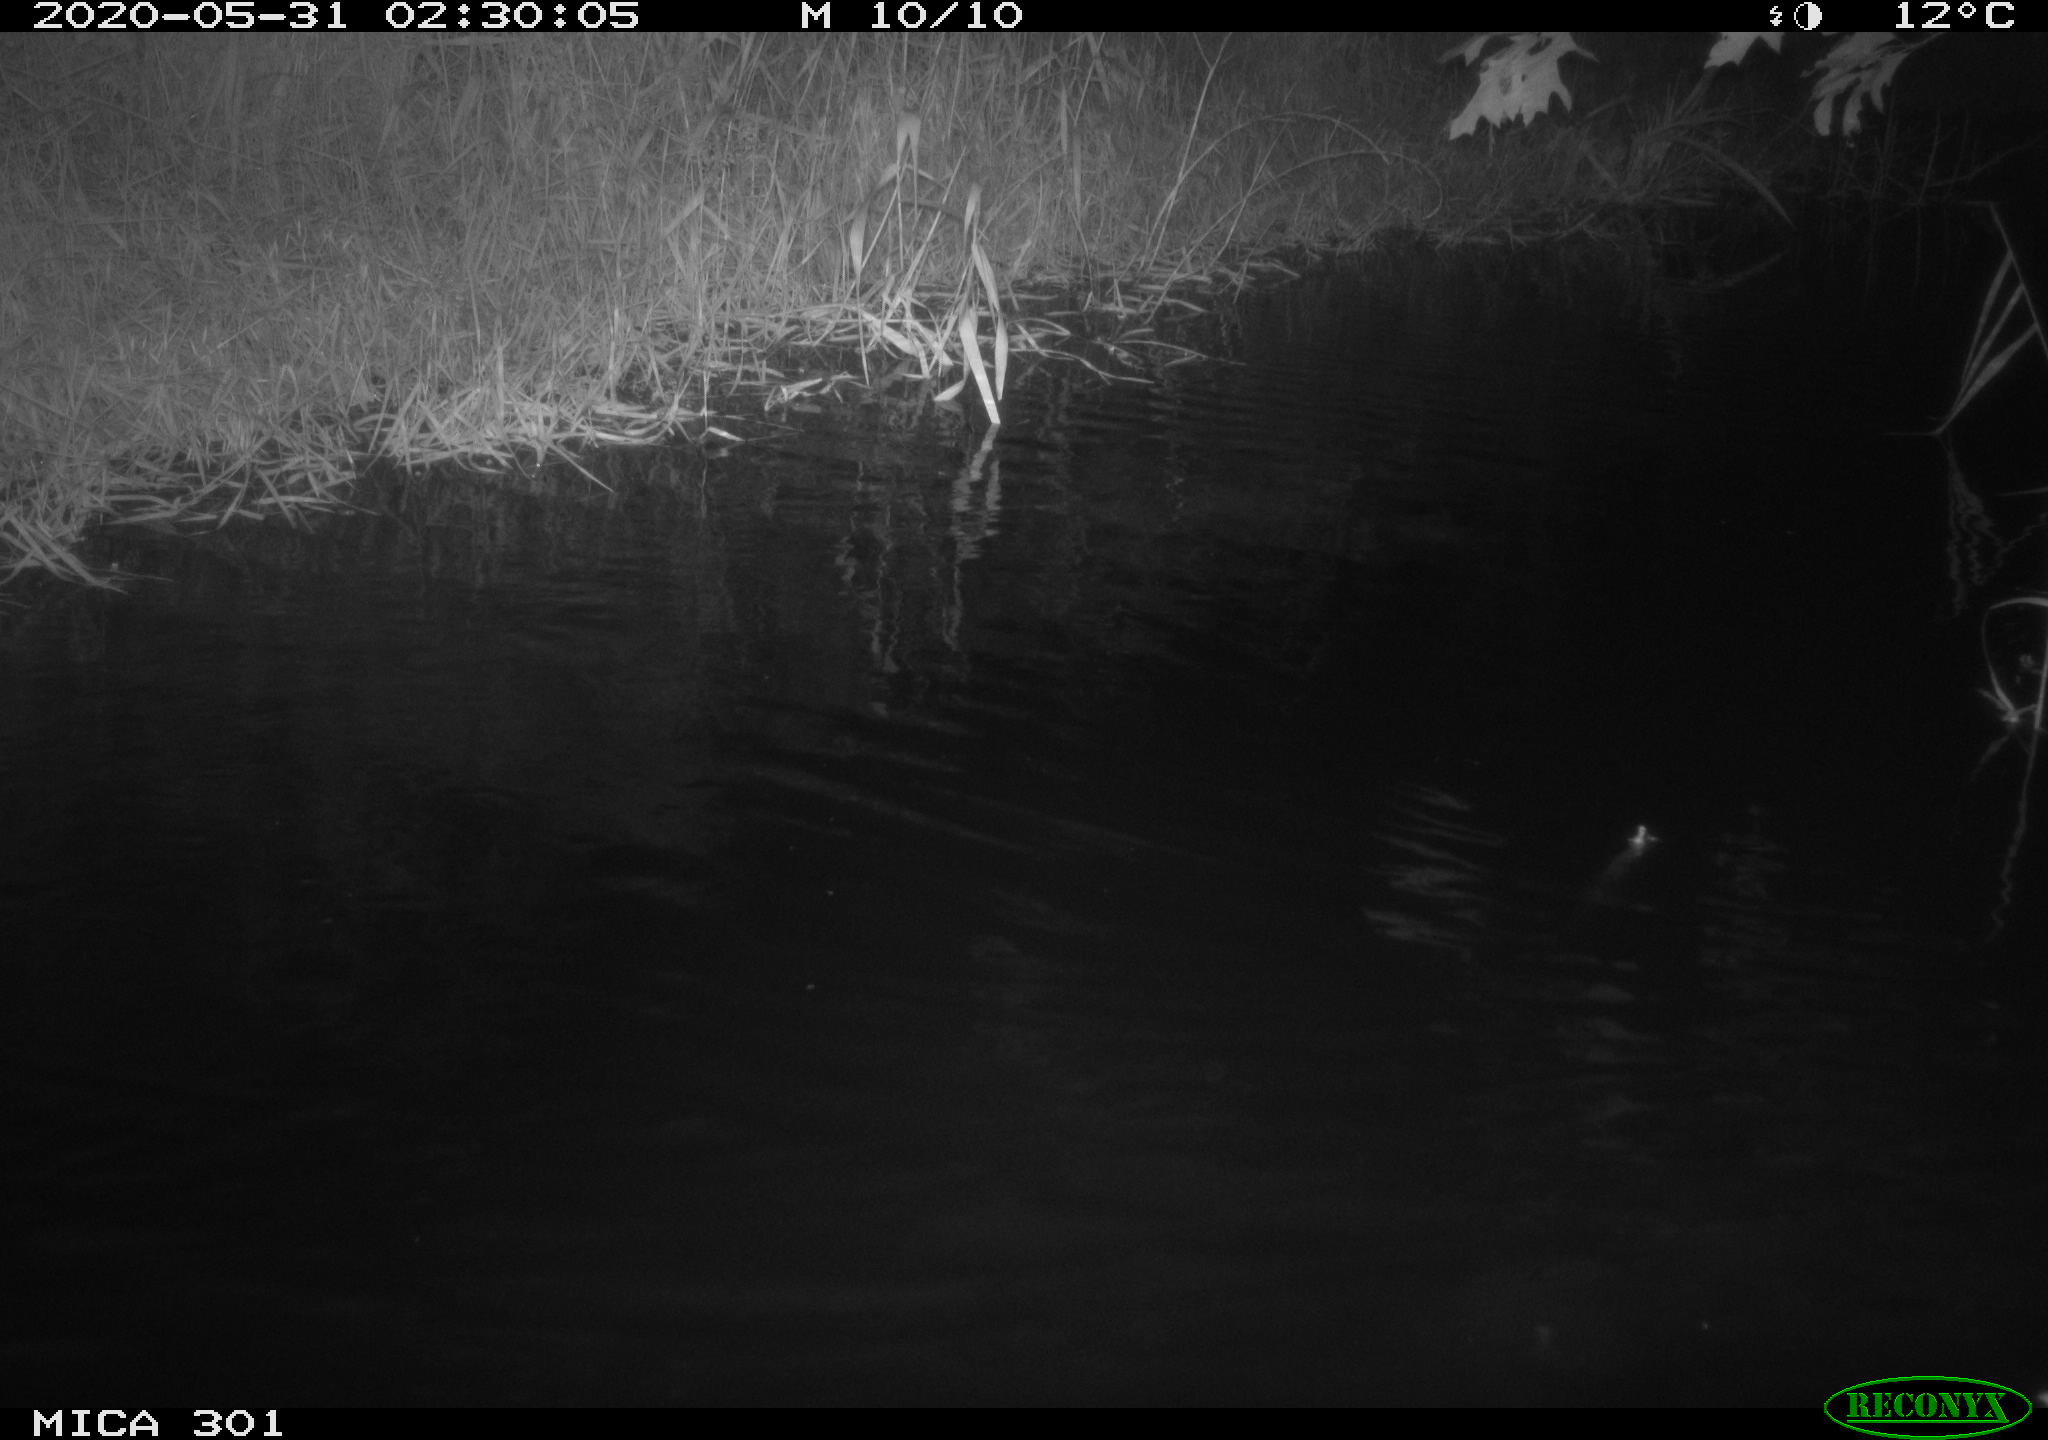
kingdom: Animalia
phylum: Chordata
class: Mammalia
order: Rodentia
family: Castoridae
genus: Castor
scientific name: Castor fiber
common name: Eurasian beaver
